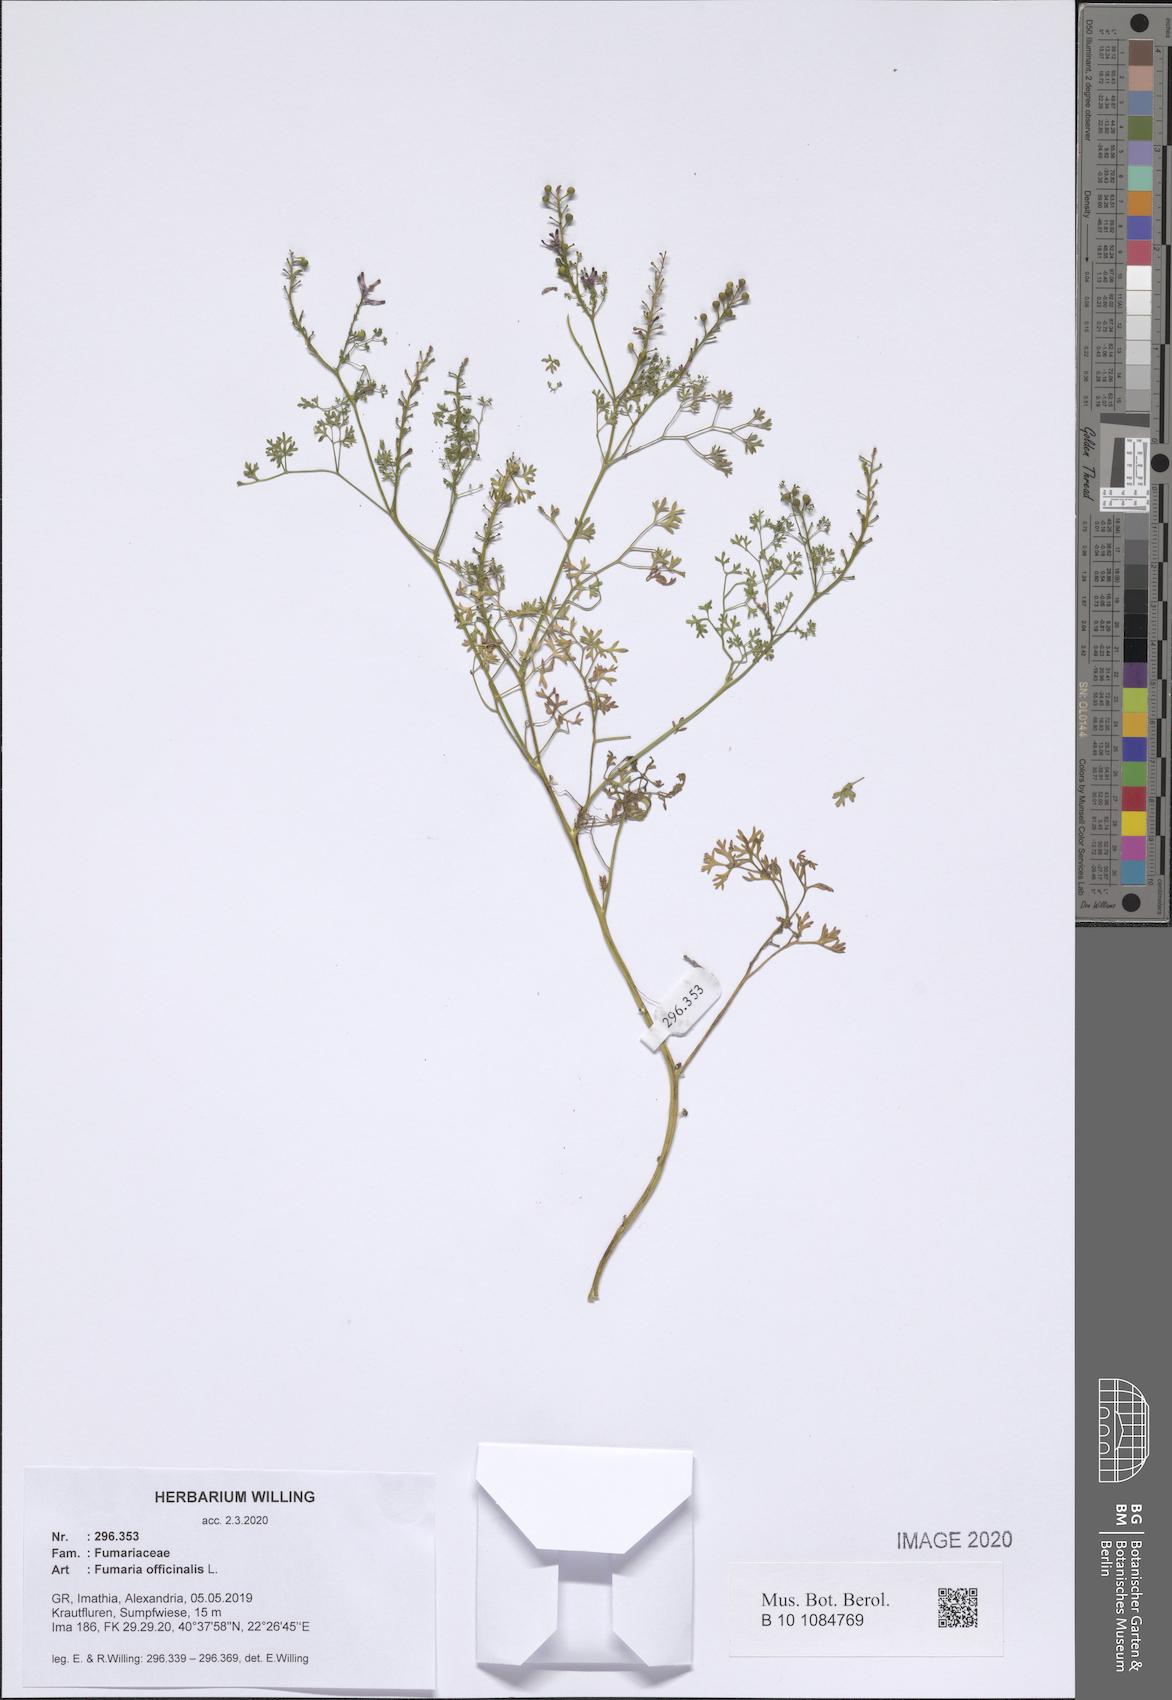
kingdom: Plantae
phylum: Tracheophyta
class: Magnoliopsida
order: Ranunculales
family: Papaveraceae
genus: Fumaria
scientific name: Fumaria officinalis
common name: Common fumitory
